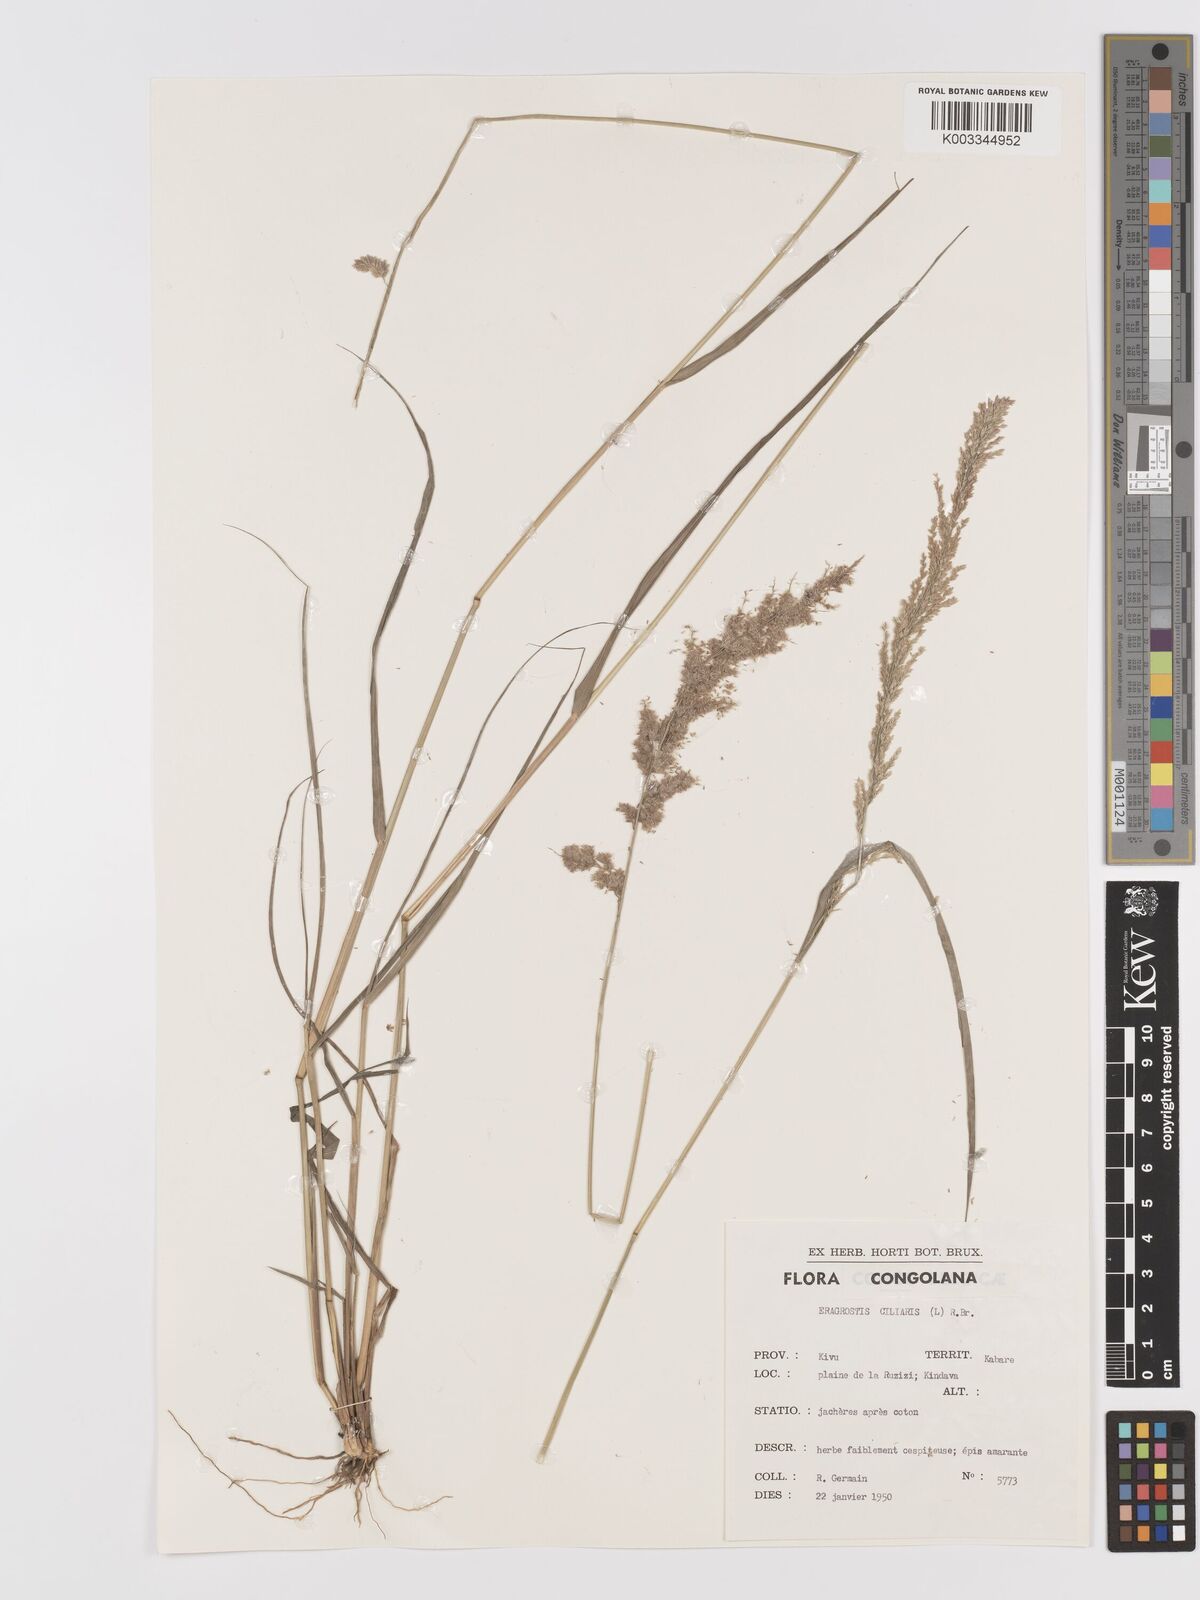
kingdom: Plantae
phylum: Tracheophyta
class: Liliopsida
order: Poales
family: Poaceae
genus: Eragrostis
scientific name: Eragrostis ciliaris
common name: Gophertail lovegrass
